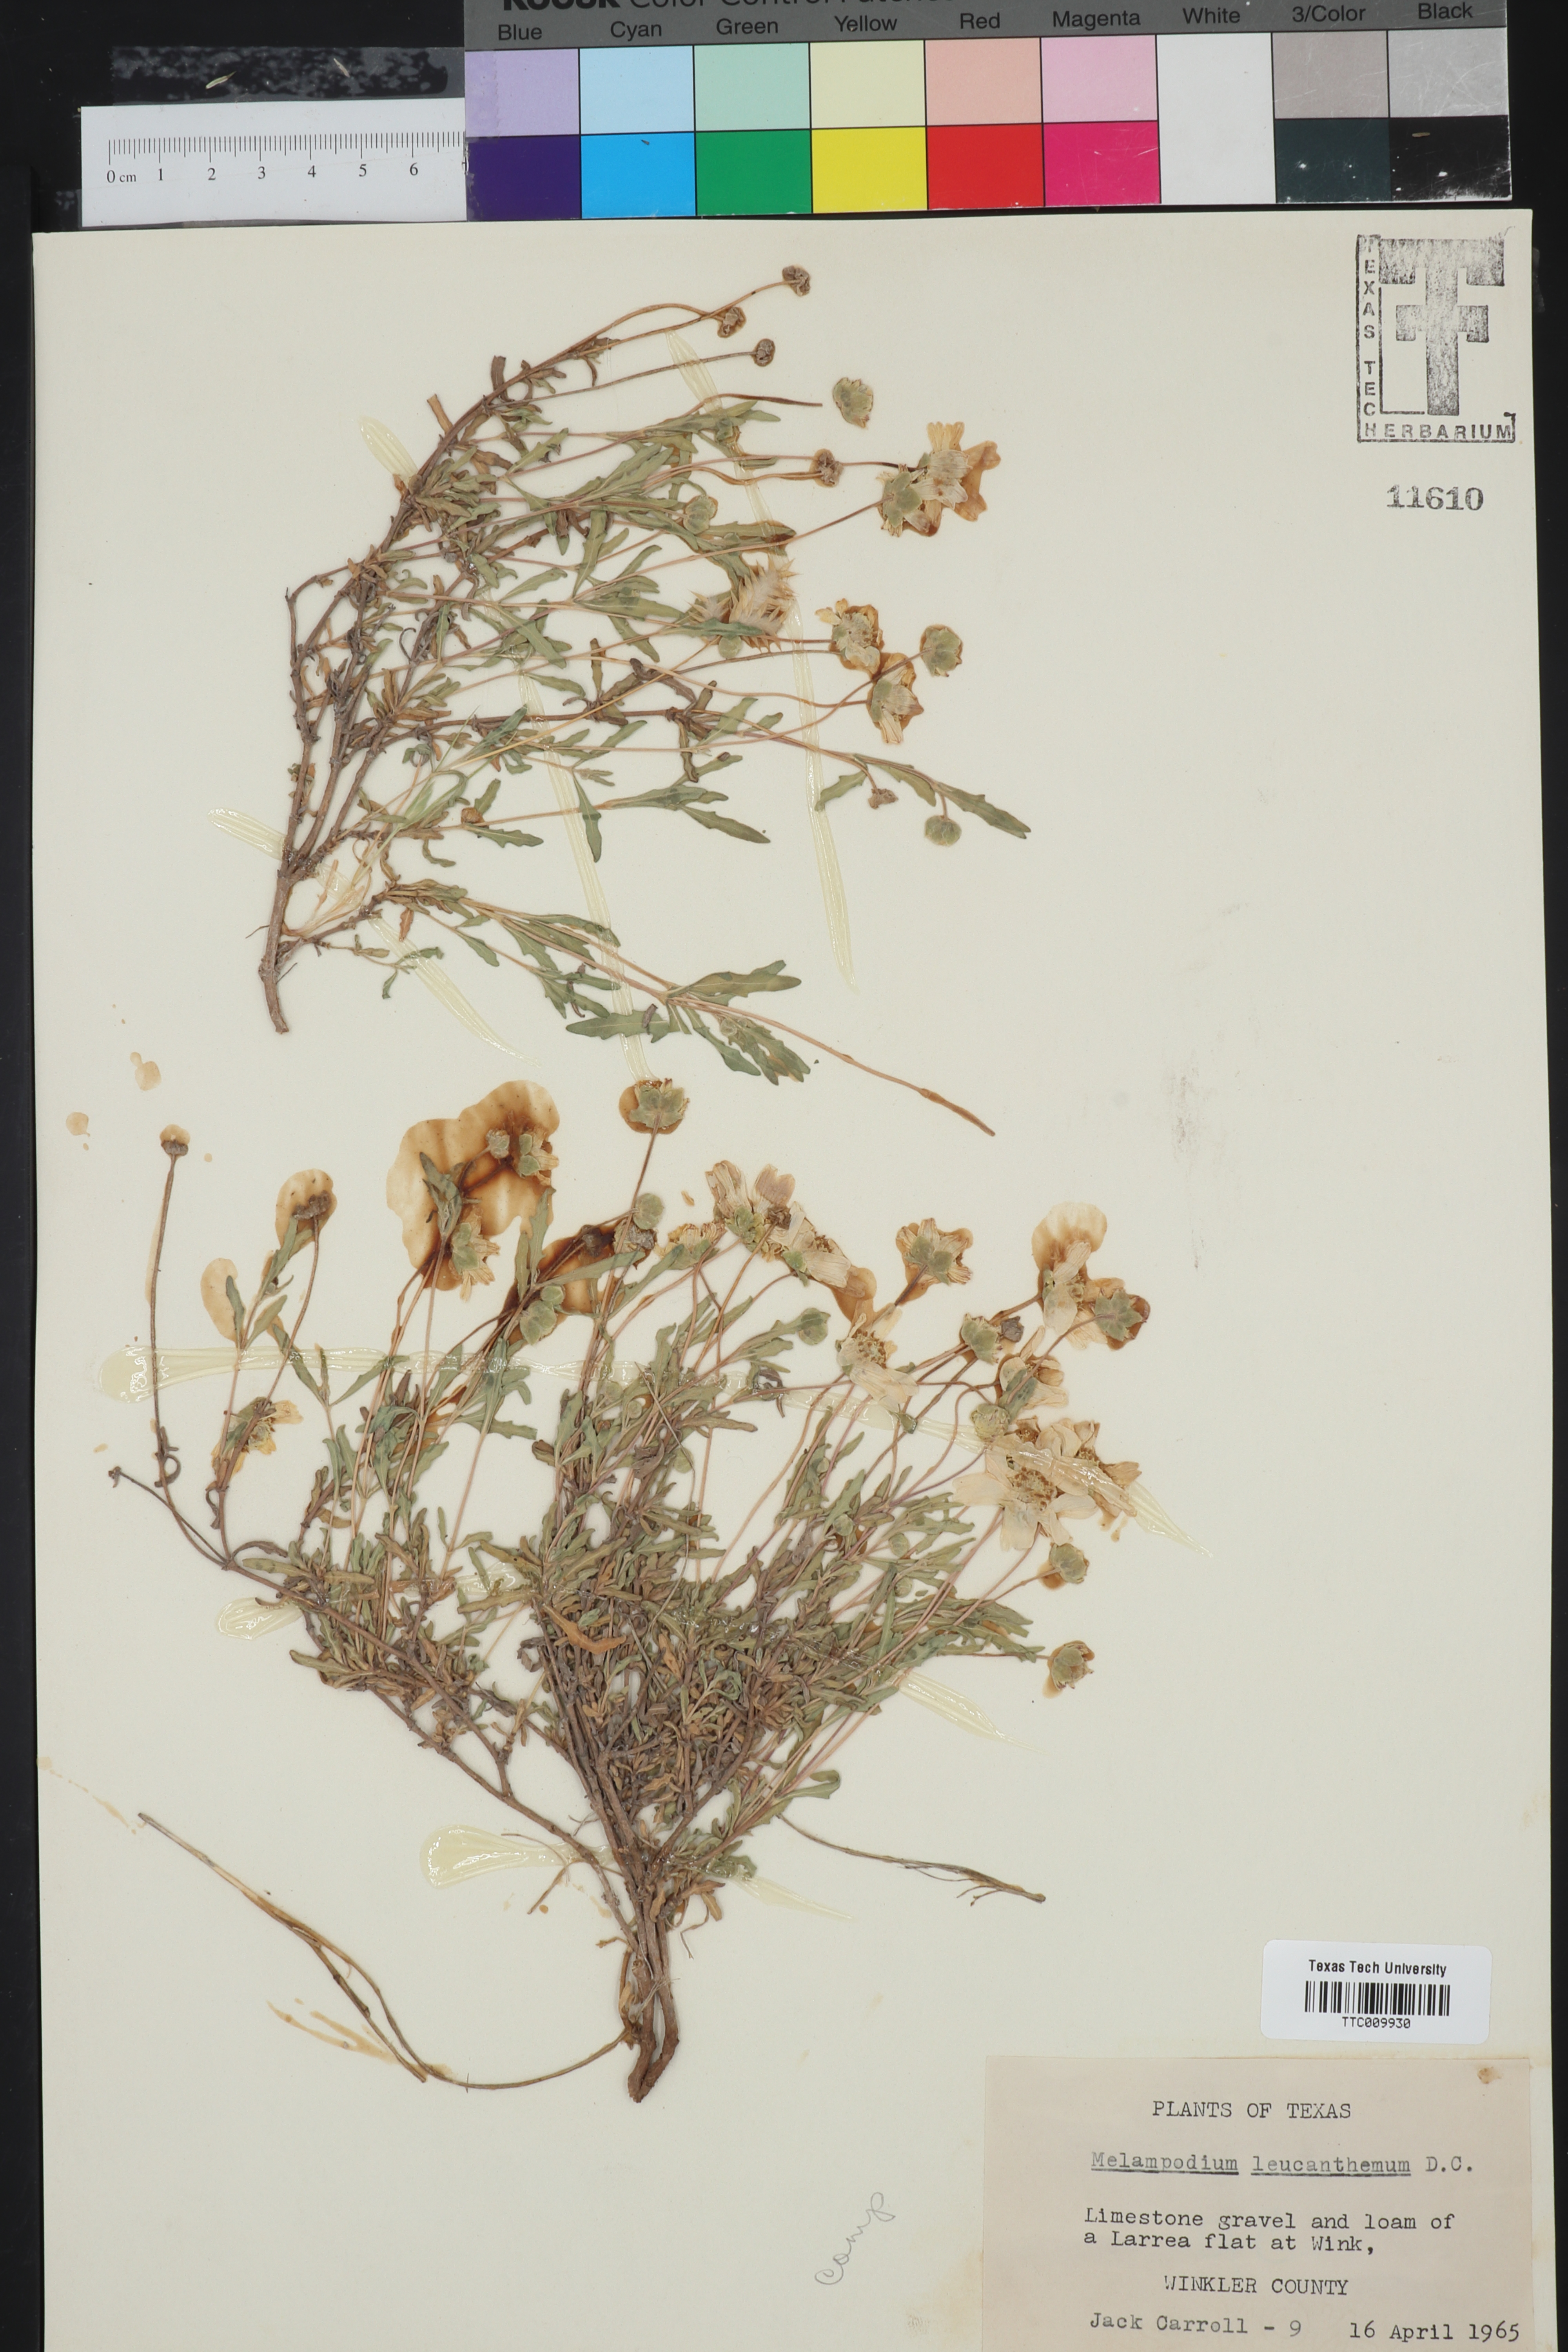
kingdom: Plantae
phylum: Tracheophyta
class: Magnoliopsida
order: Asterales
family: Asteraceae
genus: Melampodium
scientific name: Melampodium leucanthum
